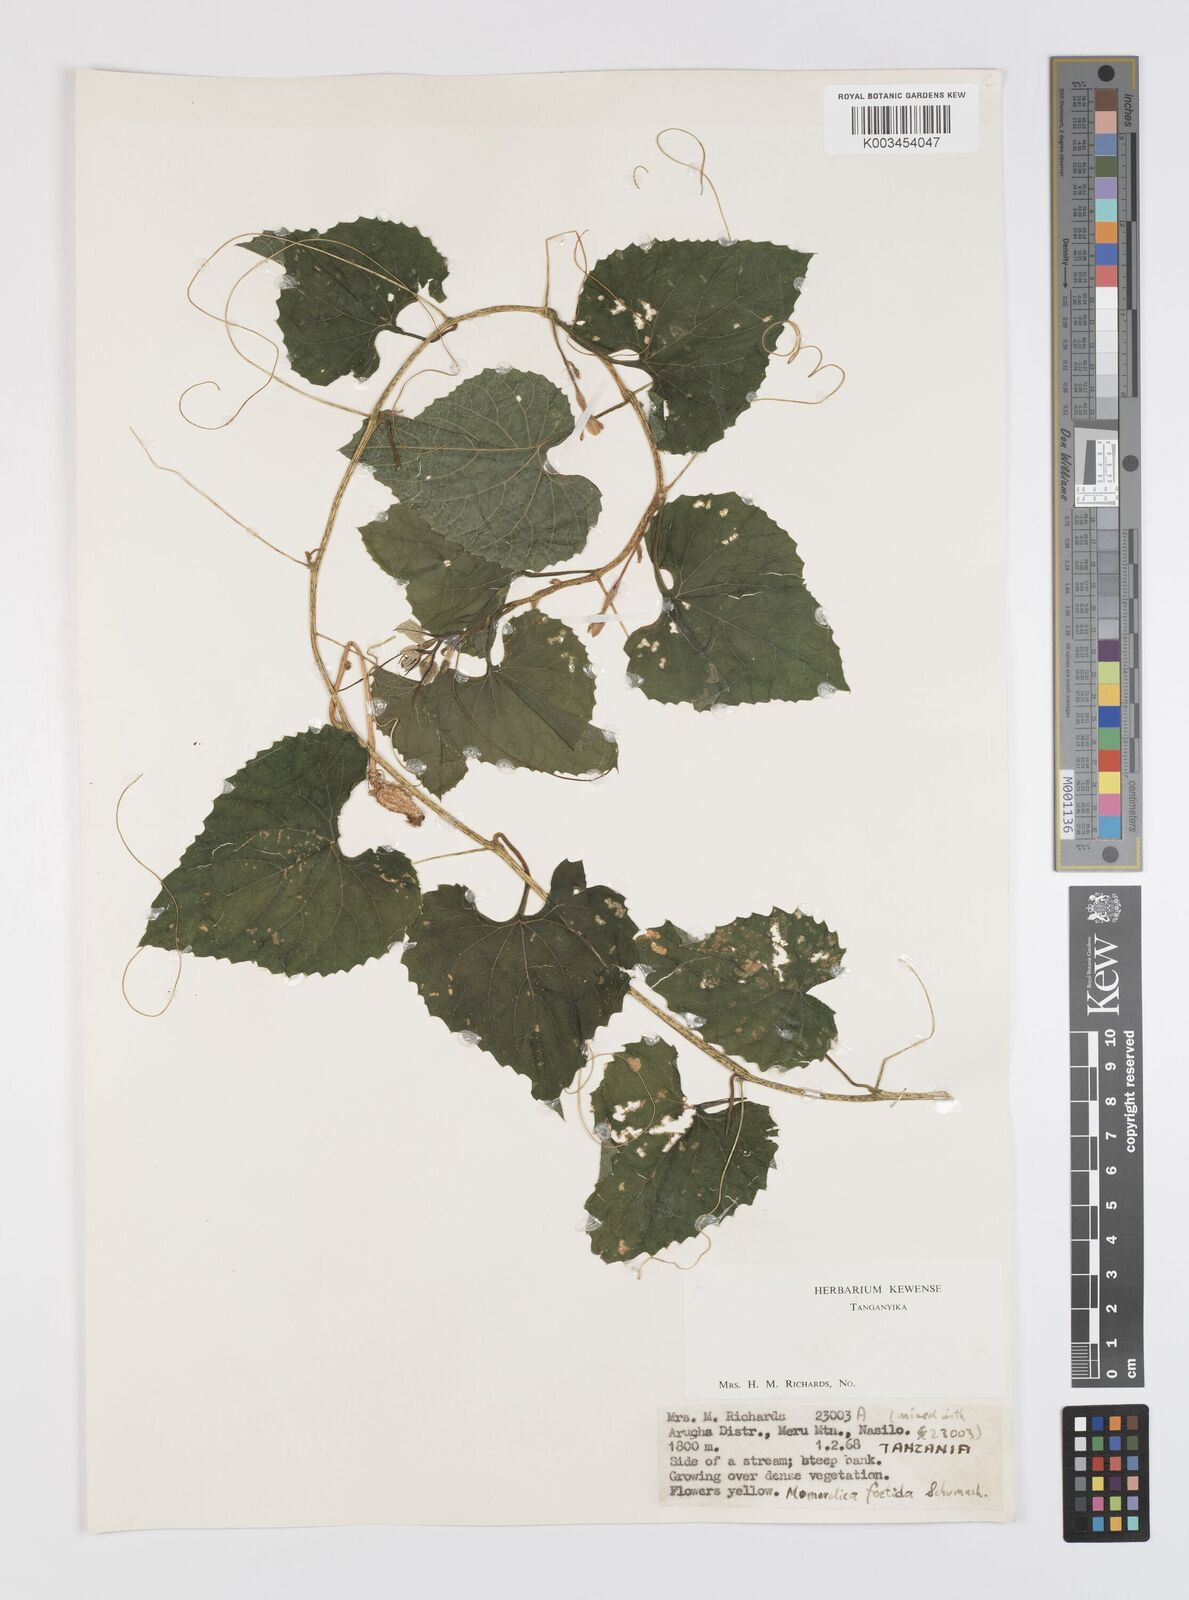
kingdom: Plantae
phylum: Tracheophyta
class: Magnoliopsida
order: Cucurbitales
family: Cucurbitaceae
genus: Momordica
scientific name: Momordica foetida
